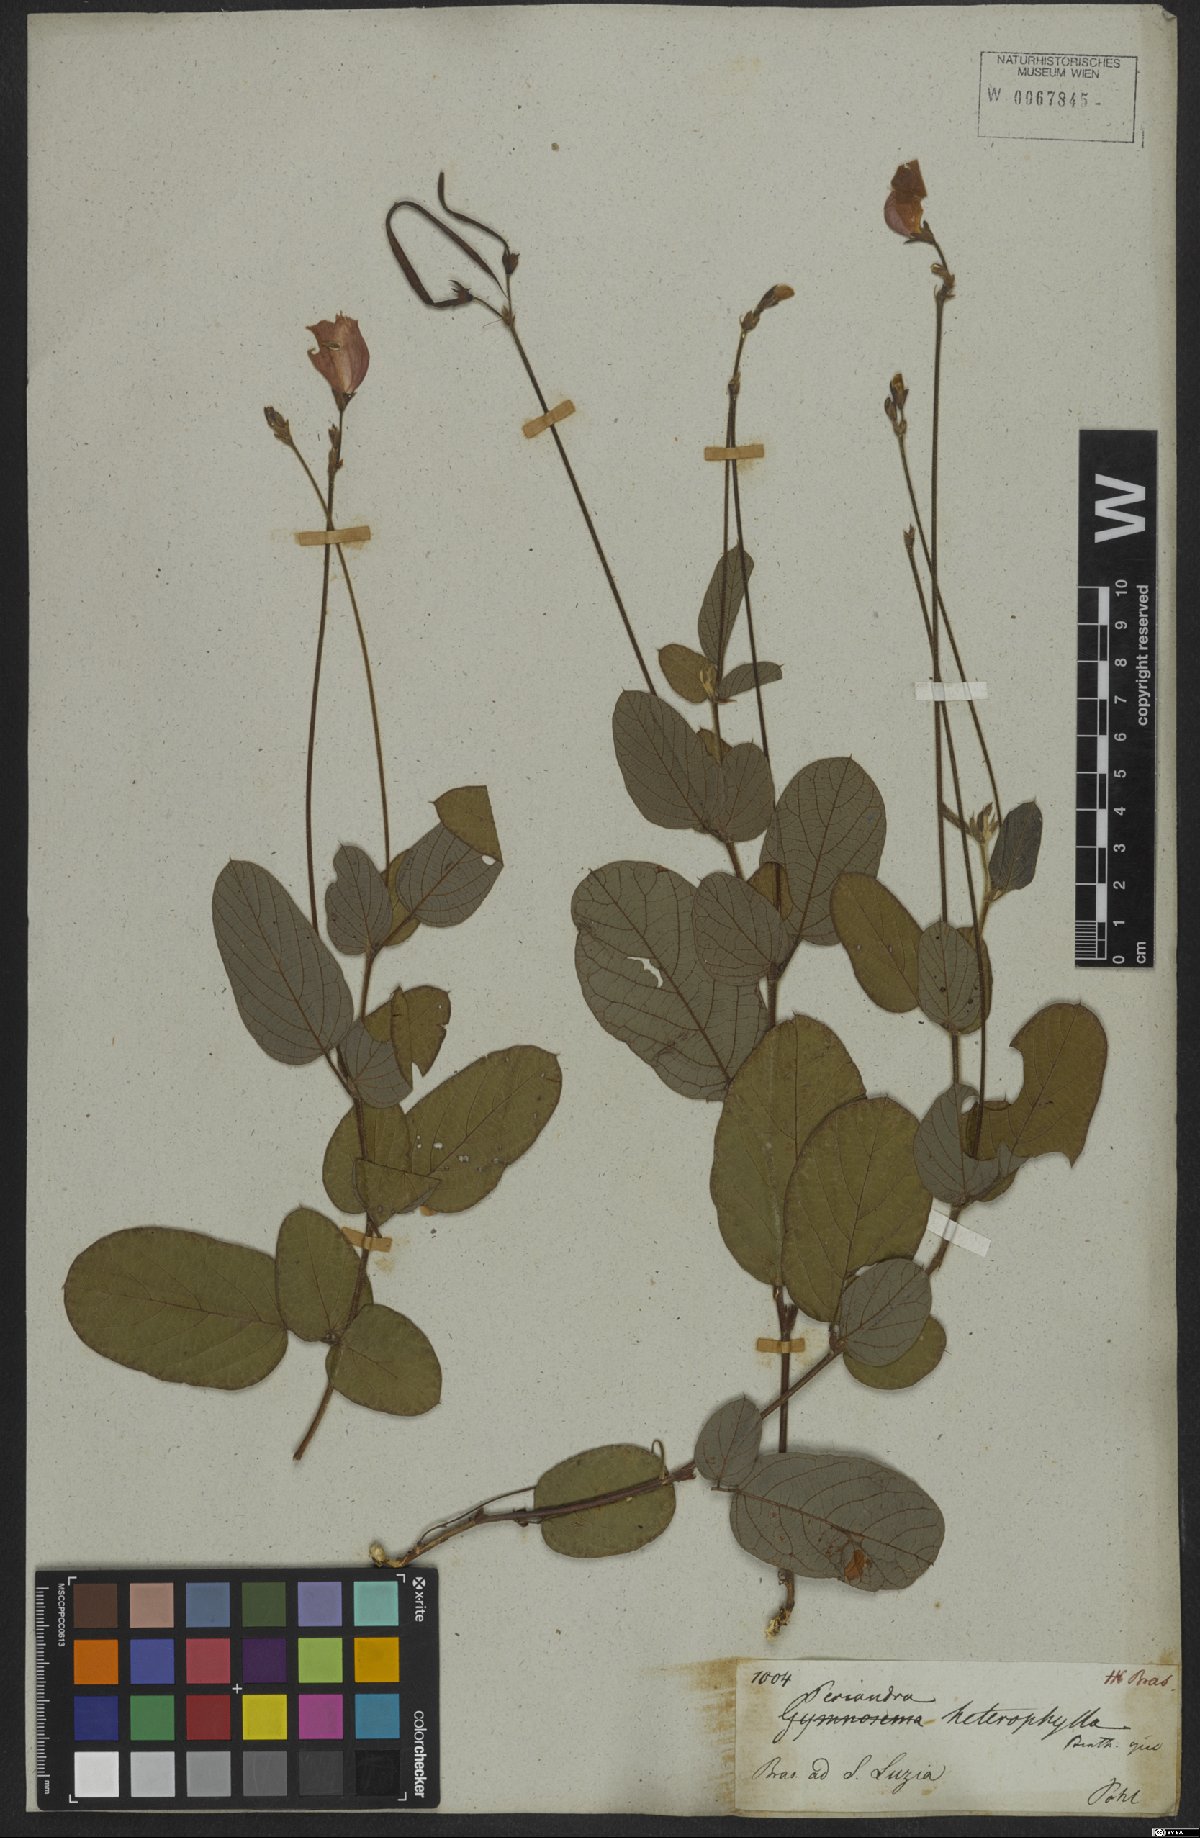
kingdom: Plantae
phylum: Tracheophyta
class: Magnoliopsida
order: Fabales
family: Fabaceae
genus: Periandra
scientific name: Periandra heterophylla
